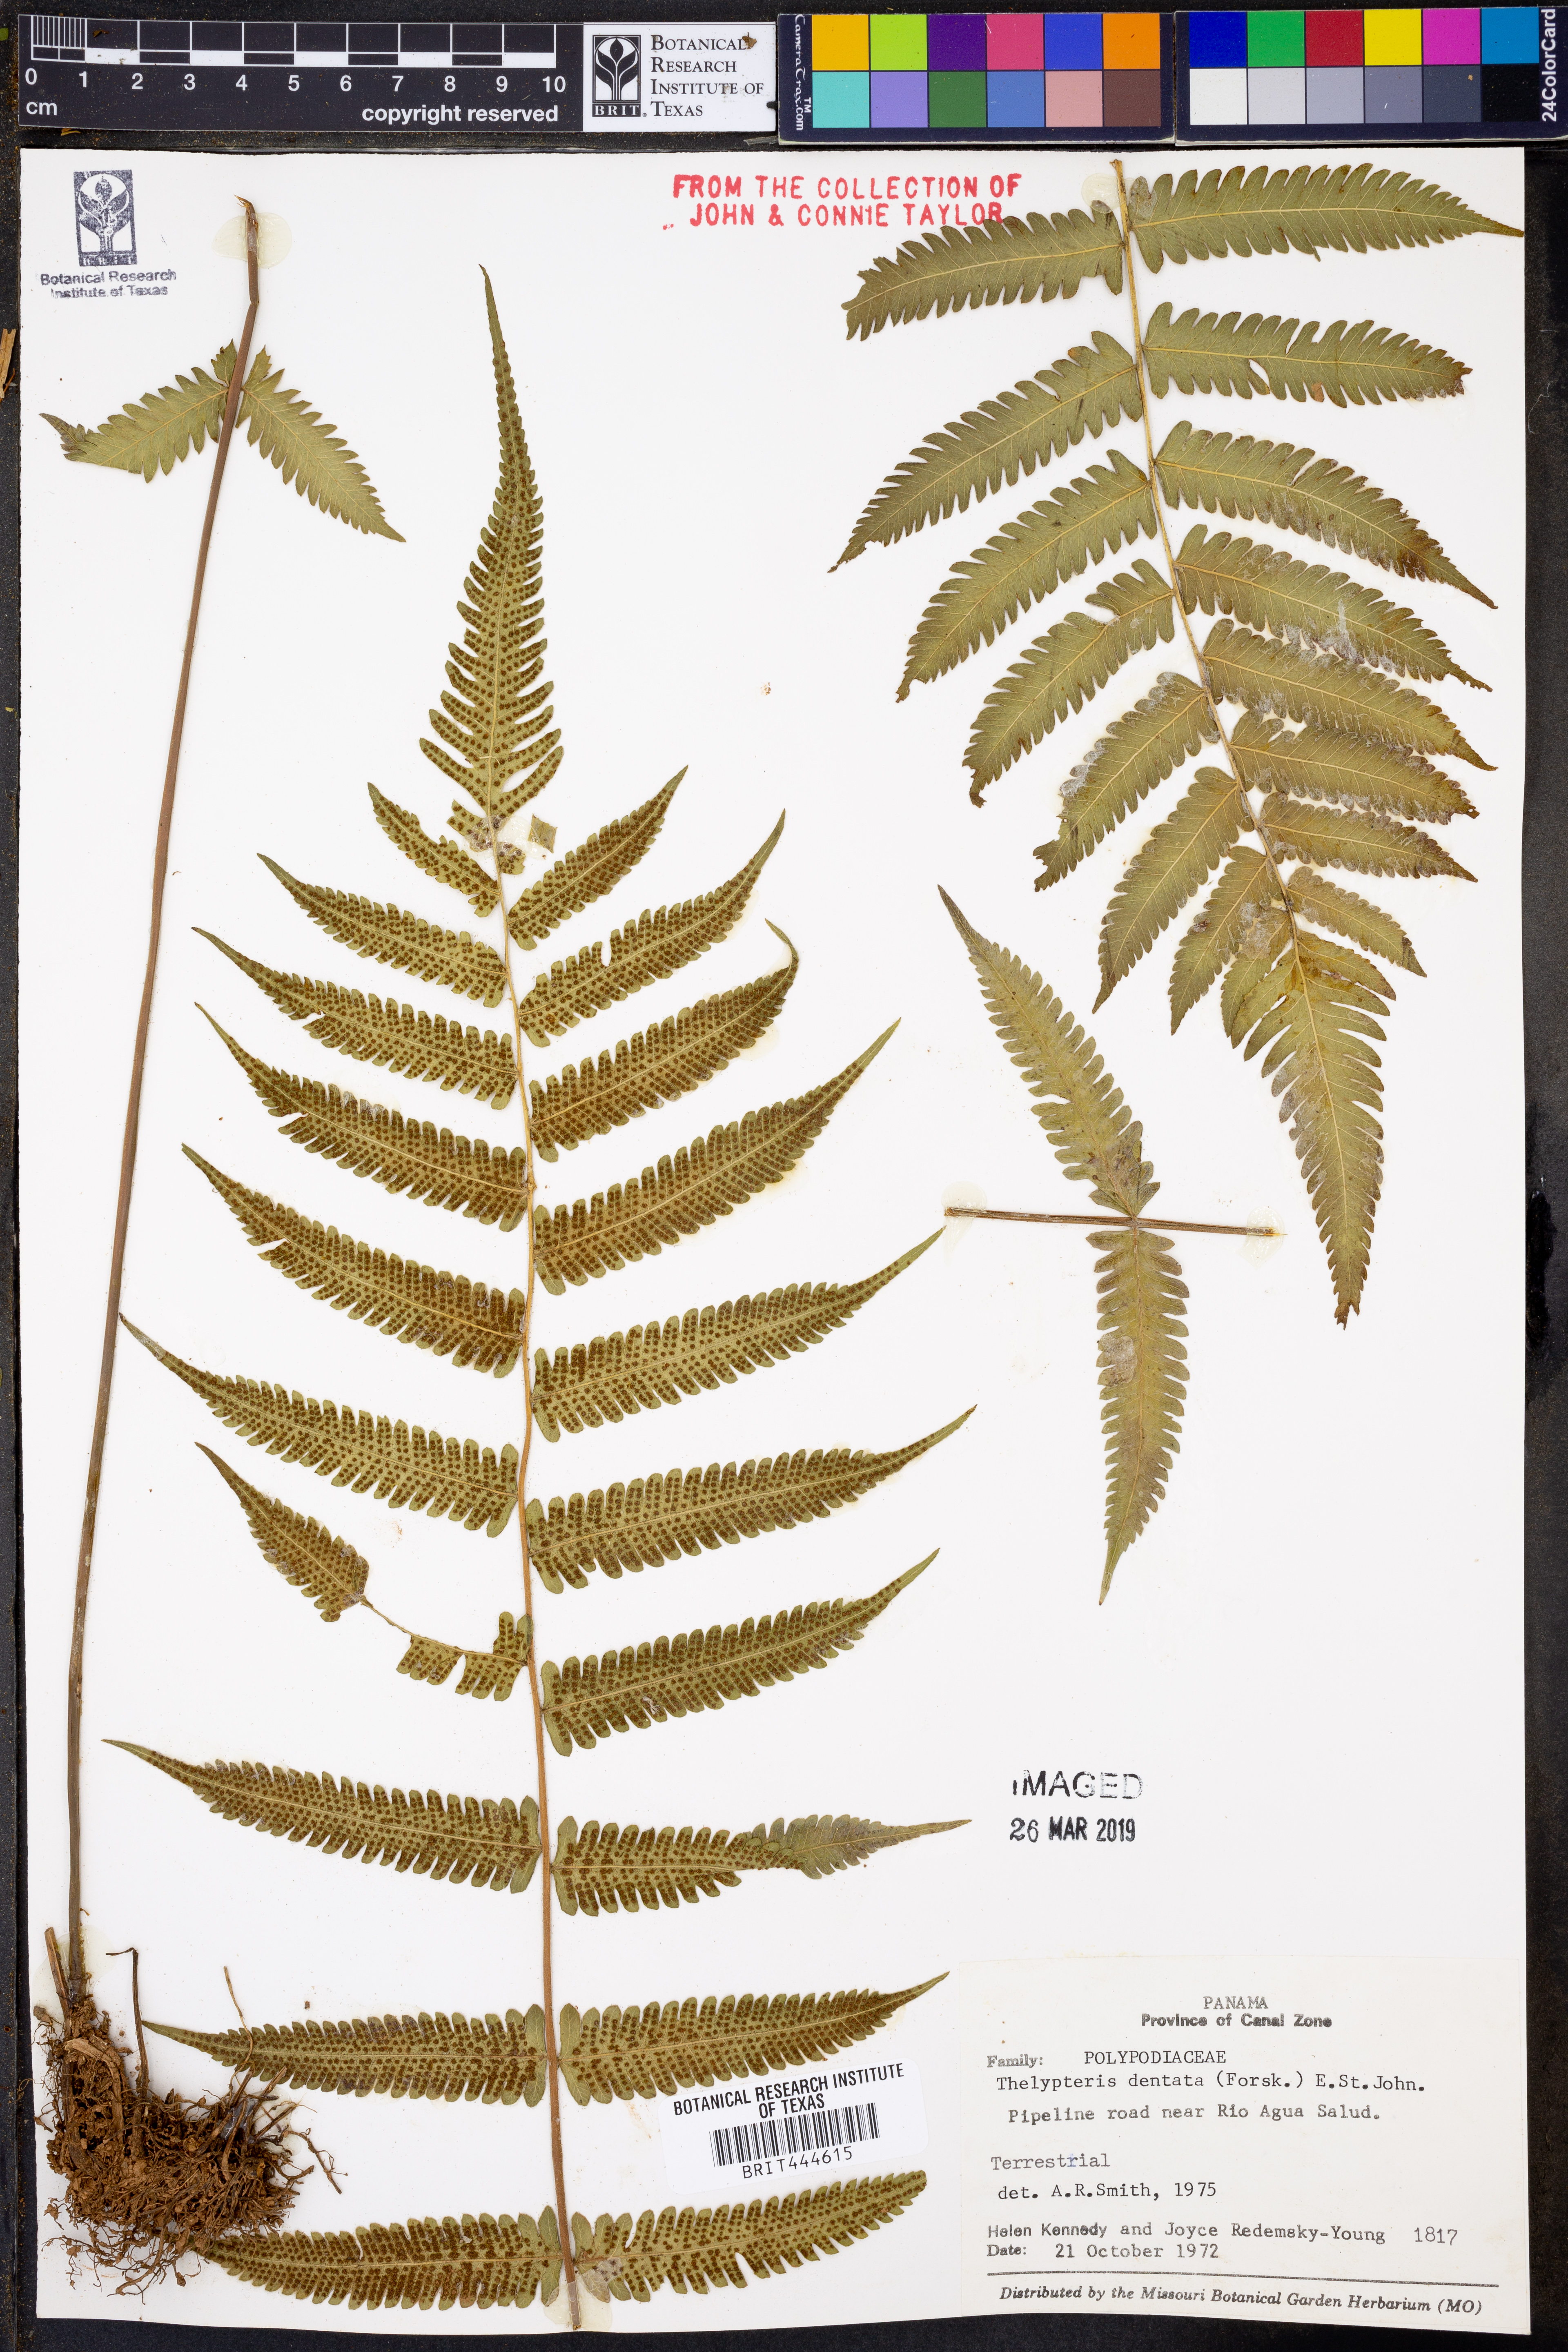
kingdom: Plantae
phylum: Tracheophyta
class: Polypodiopsida
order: Polypodiales
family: Thelypteridaceae
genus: Christella
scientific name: Christella dentata
